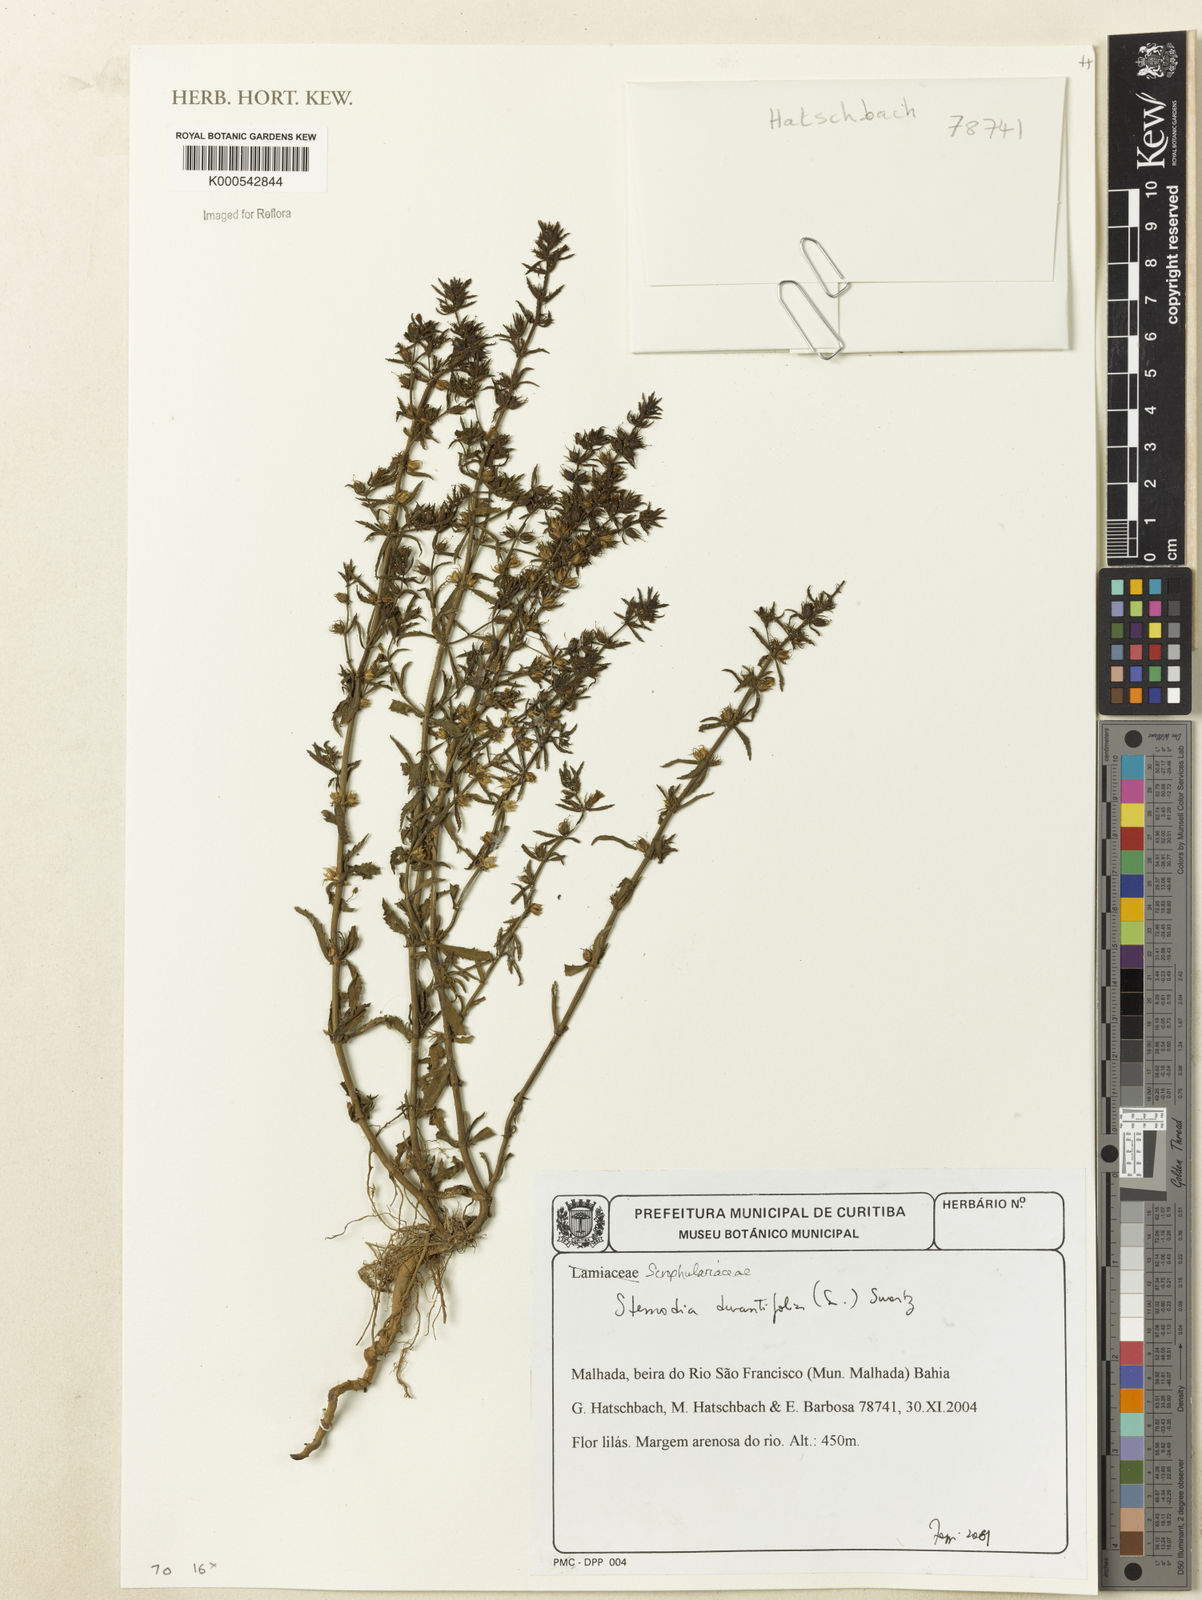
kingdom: Plantae
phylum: Tracheophyta
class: Magnoliopsida
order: Lamiales
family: Plantaginaceae
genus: Stemodia
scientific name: Stemodia durantifolia
